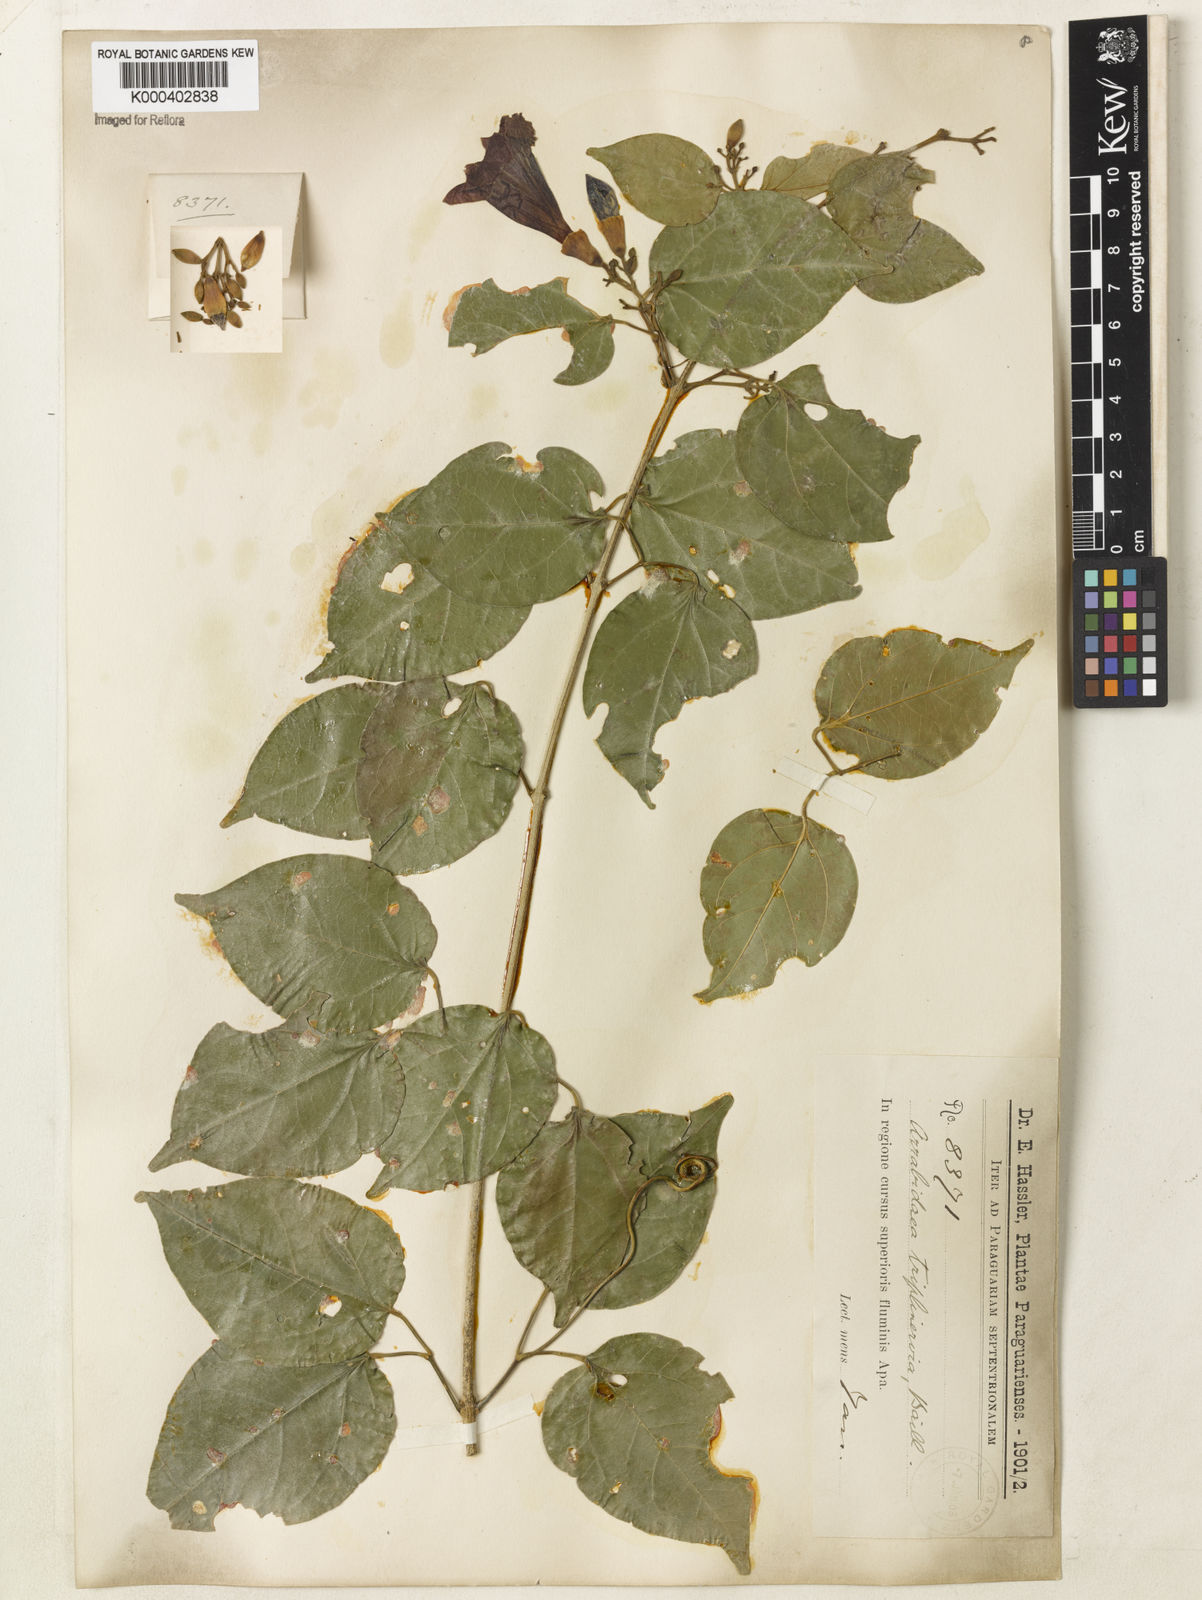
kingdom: Plantae
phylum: Tracheophyta
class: Magnoliopsida
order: Lamiales
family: Bignoniaceae
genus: Fridericia
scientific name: Fridericia triplinervia
